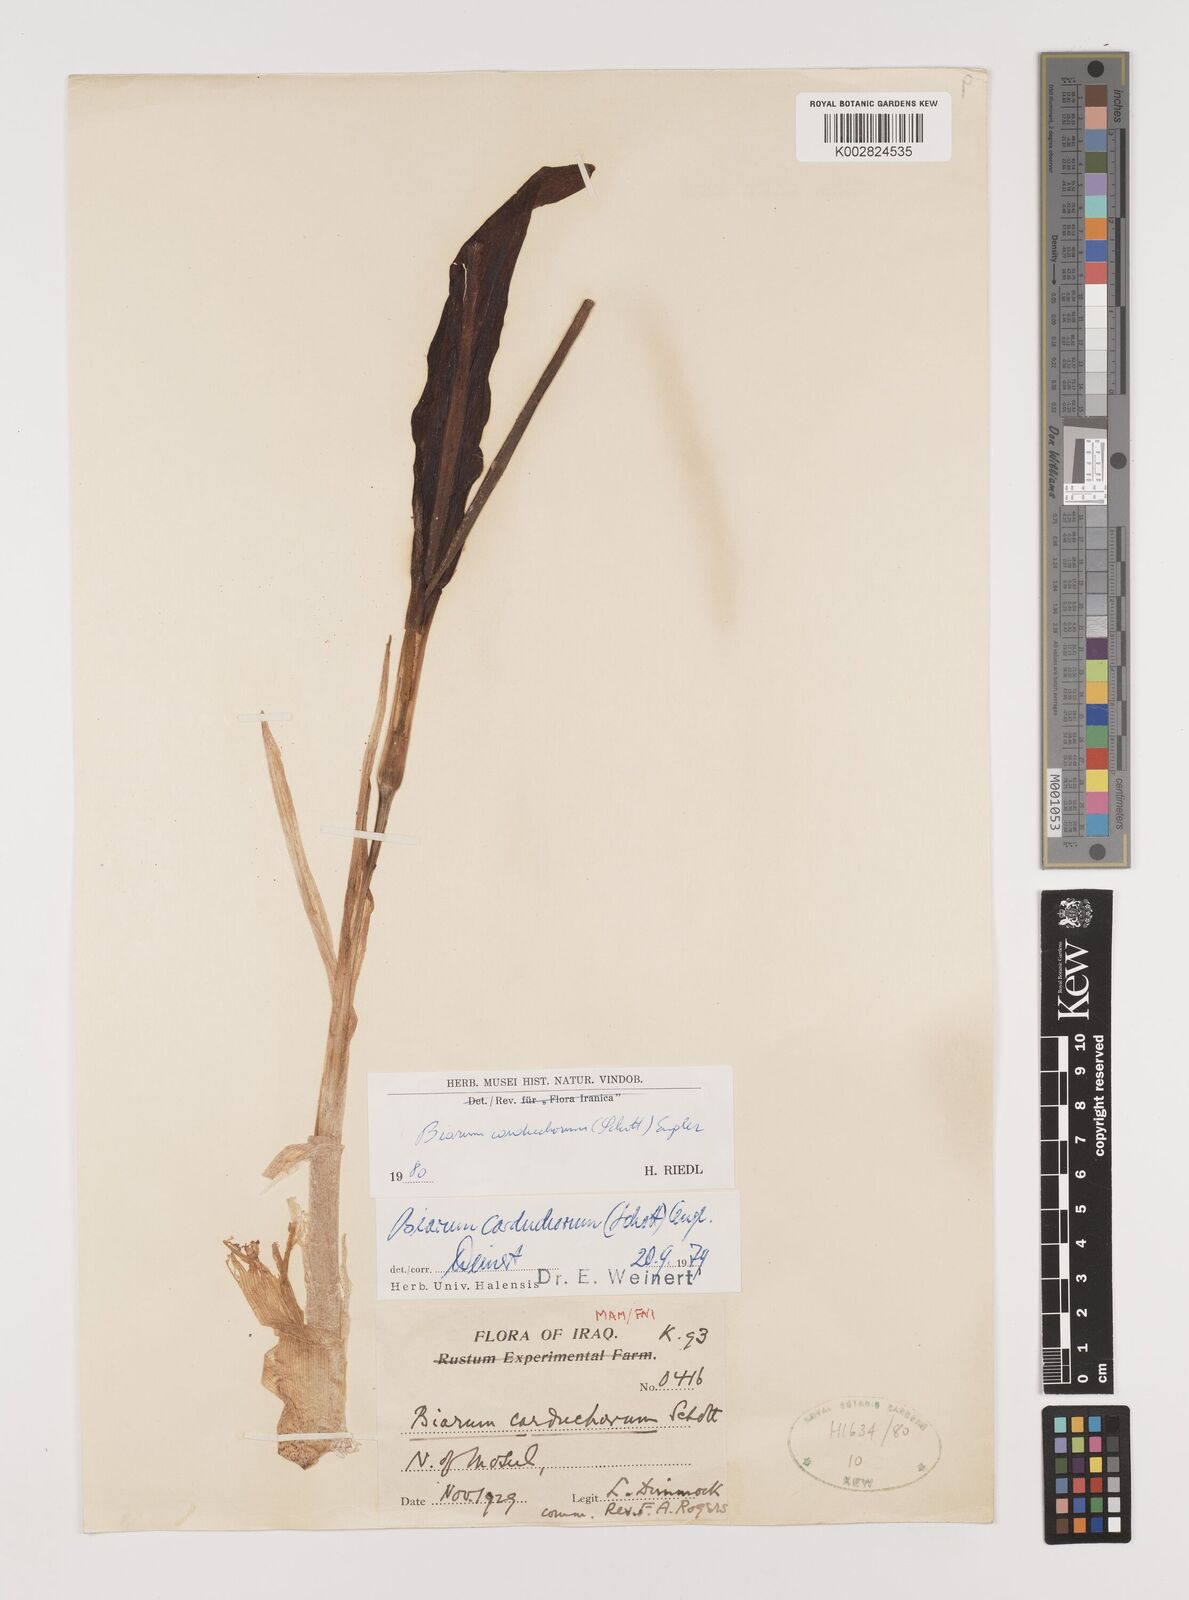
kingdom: Plantae
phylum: Tracheophyta
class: Liliopsida
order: Alismatales
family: Araceae
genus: Biarum
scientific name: Biarum carduchorum
